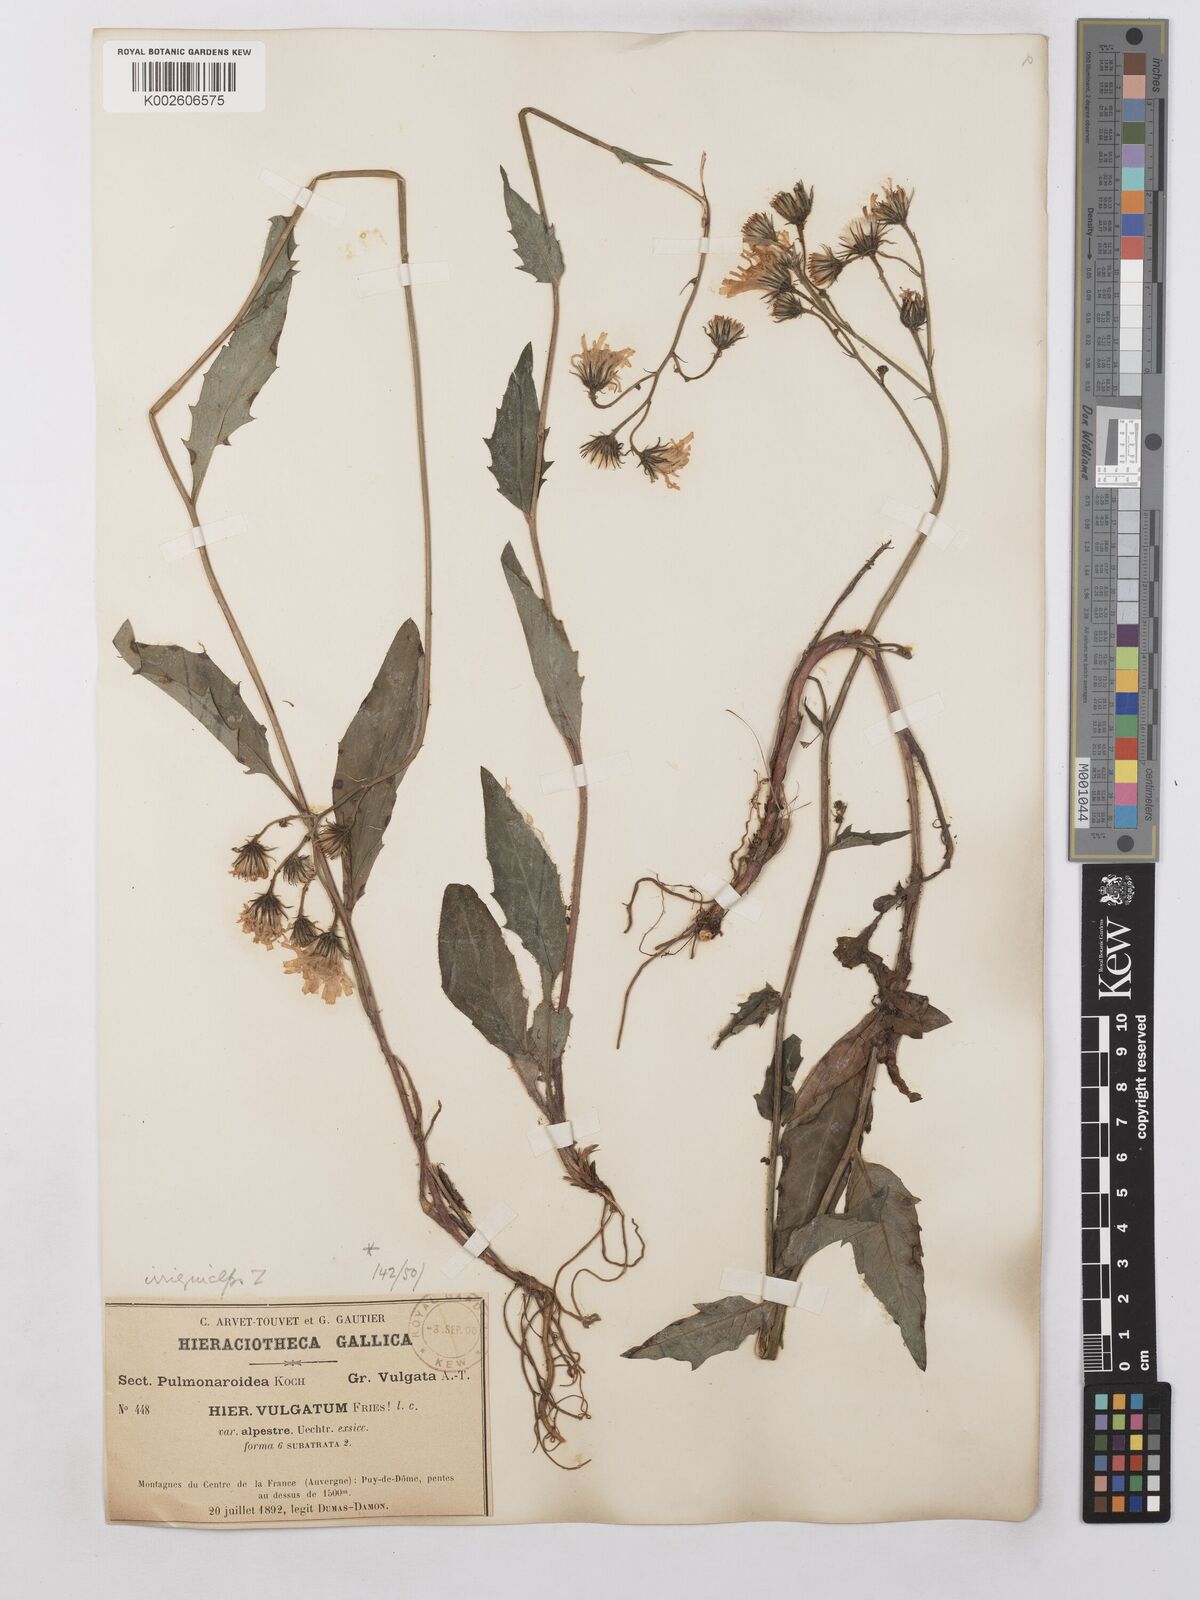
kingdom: Plantae
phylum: Tracheophyta
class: Magnoliopsida
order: Asterales
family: Asteraceae
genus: Hieracium
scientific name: Hieracium lachenalii
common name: Common hawkweed
